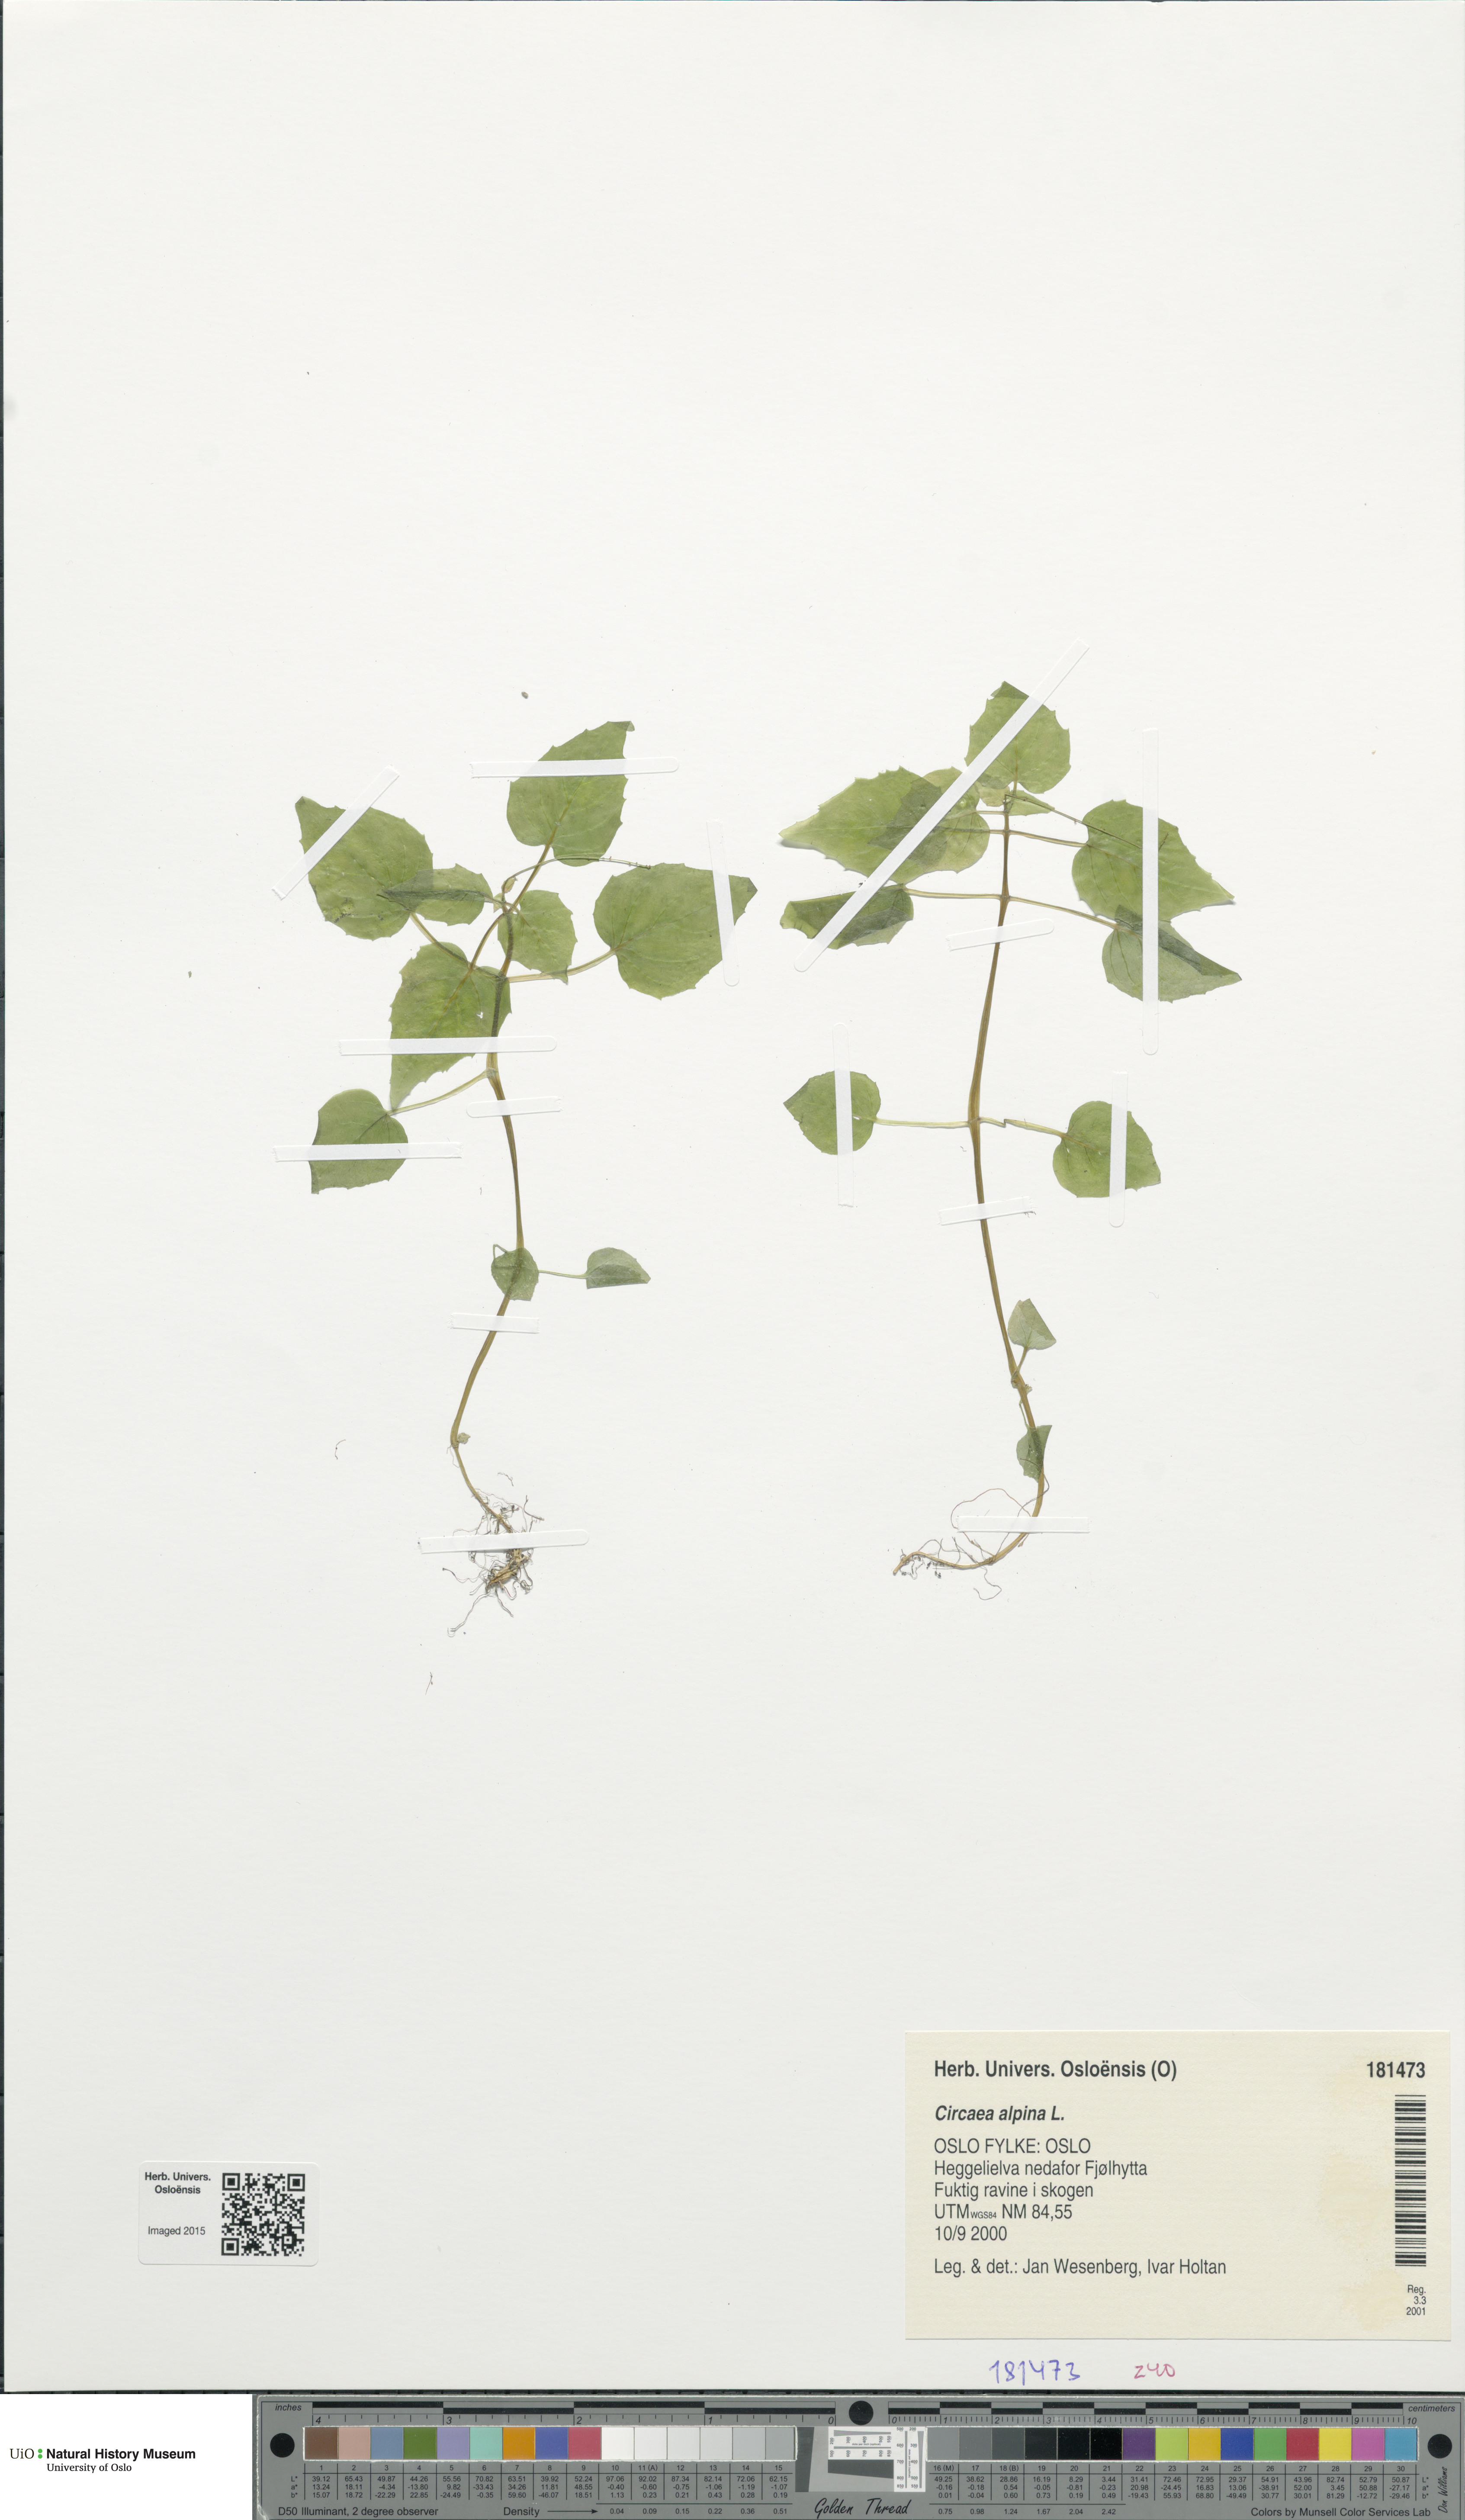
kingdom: Plantae
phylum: Tracheophyta
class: Magnoliopsida
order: Myrtales
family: Onagraceae
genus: Circaea
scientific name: Circaea alpina
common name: Alpine enchanter's-nightshade
